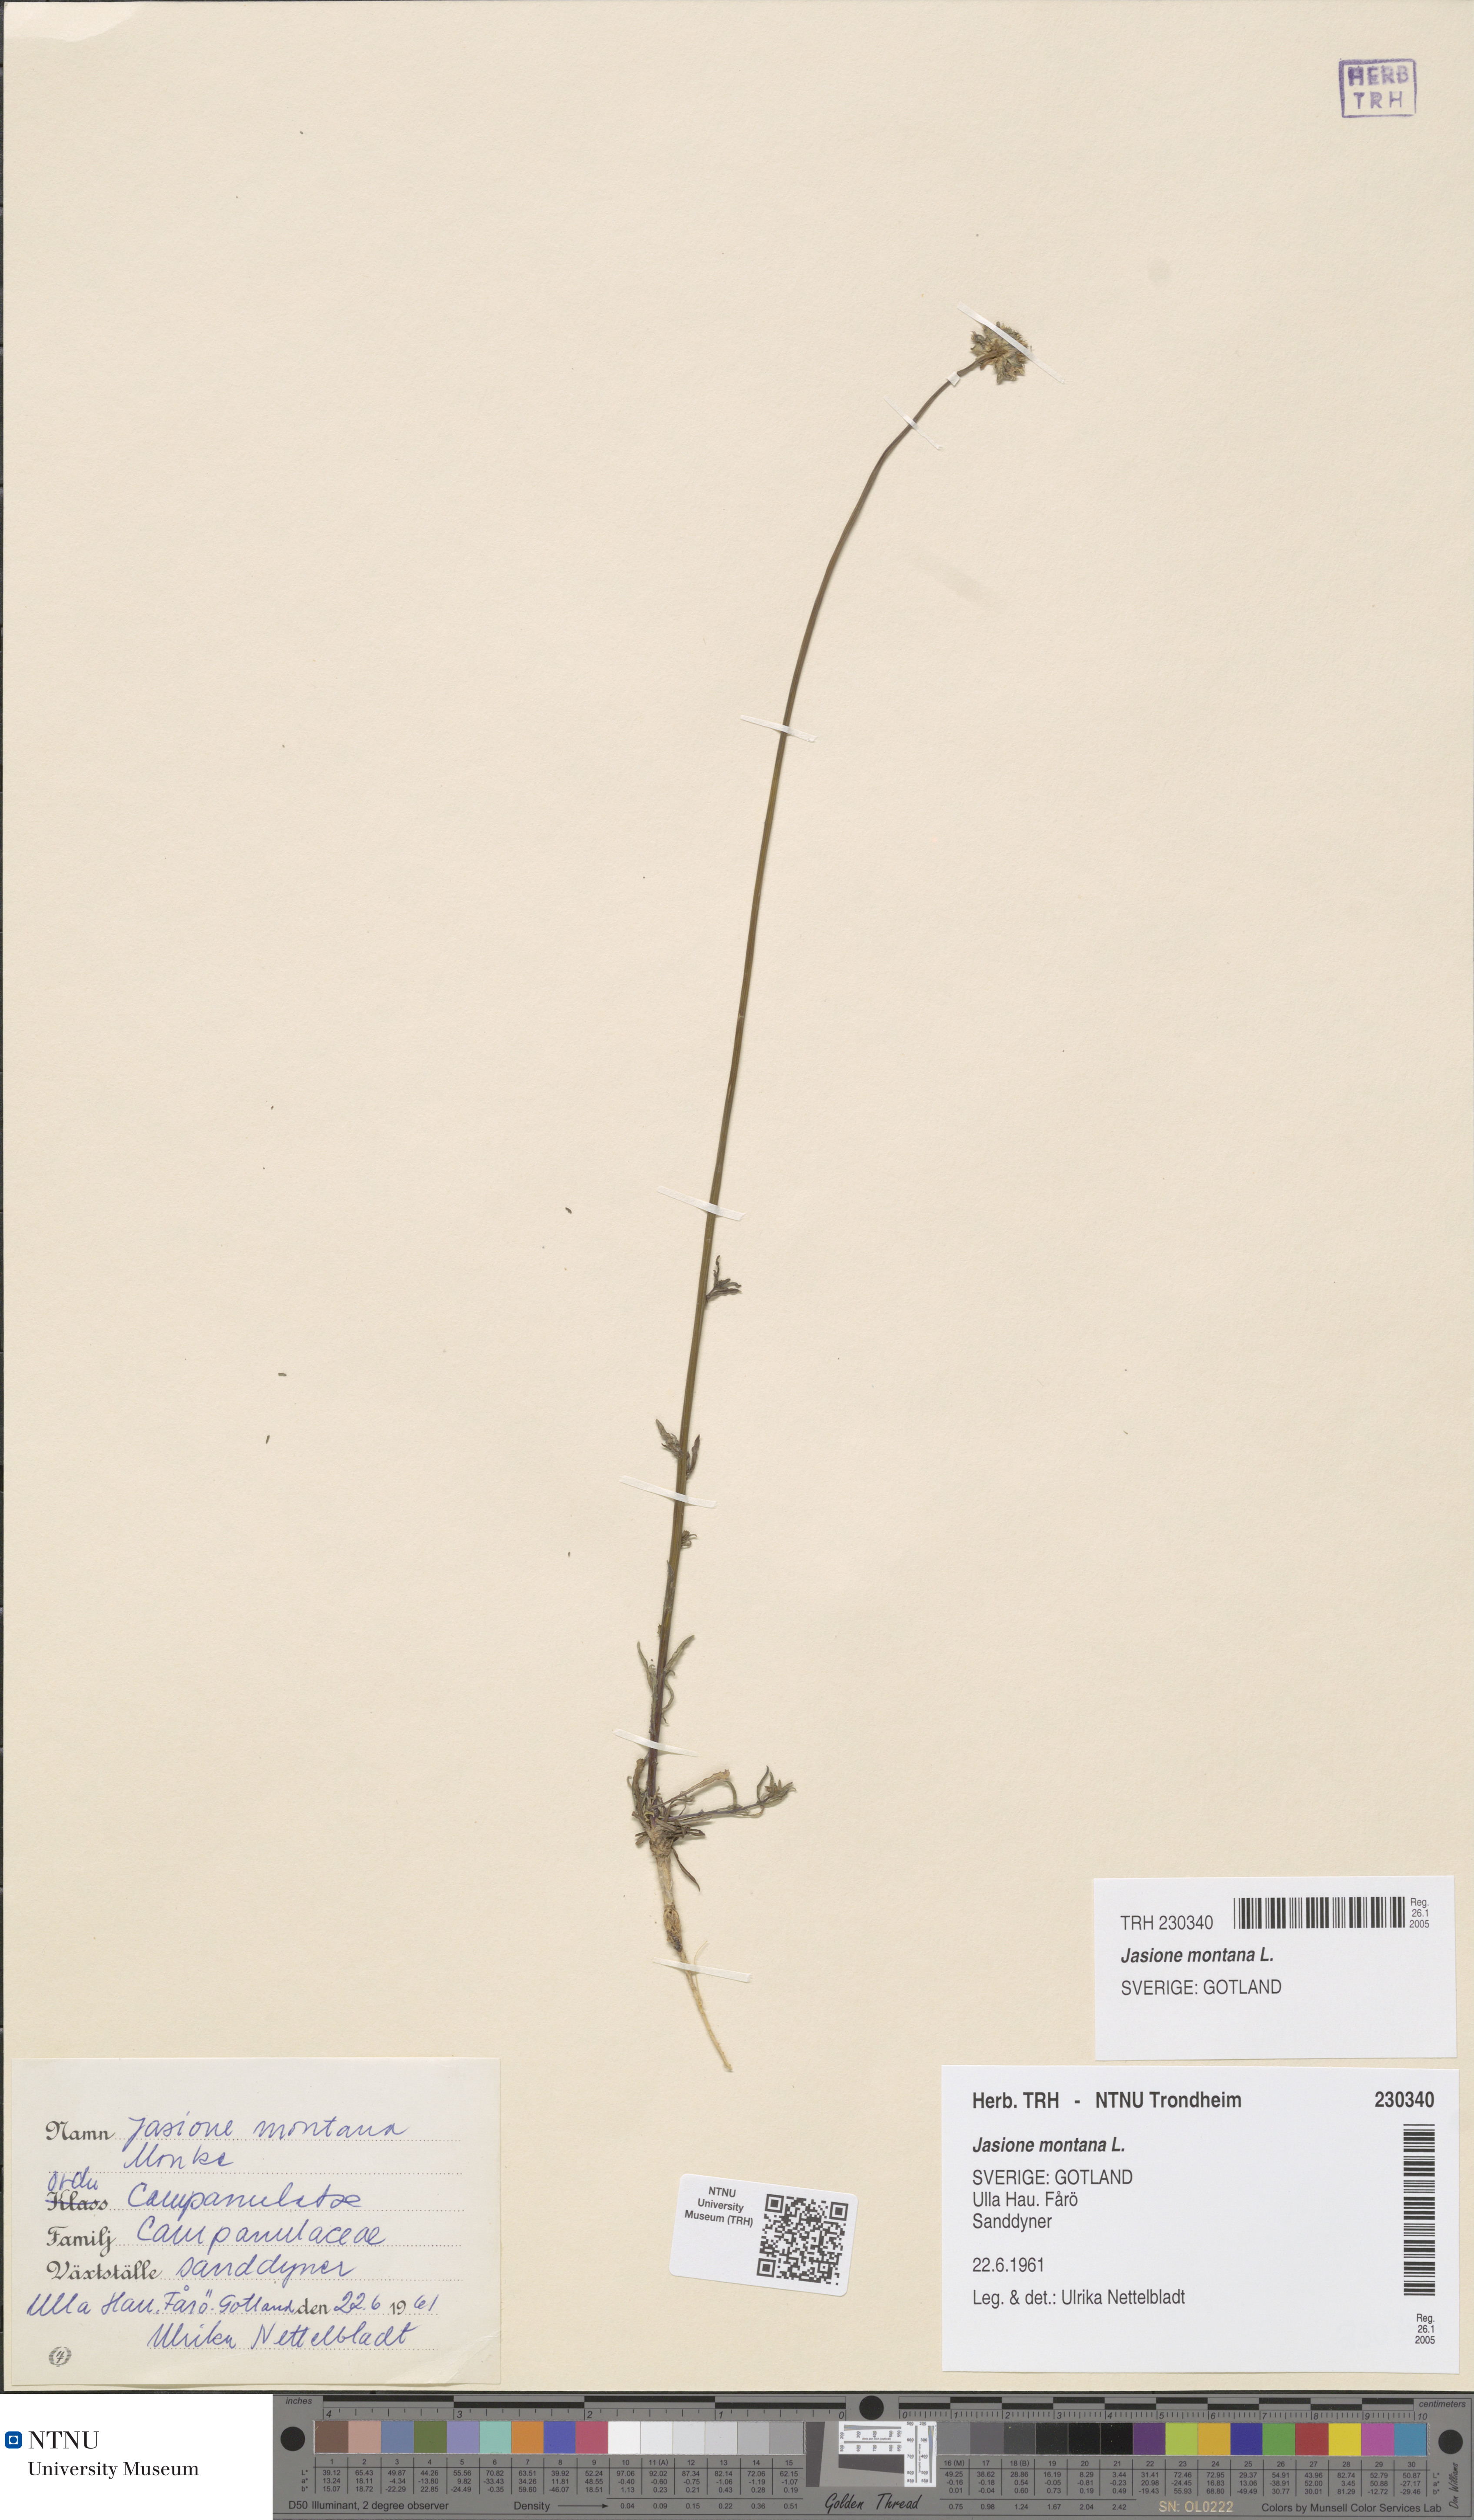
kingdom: Plantae
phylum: Tracheophyta
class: Magnoliopsida
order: Asterales
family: Campanulaceae
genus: Jasione
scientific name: Jasione montana
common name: Sheep's-bit
